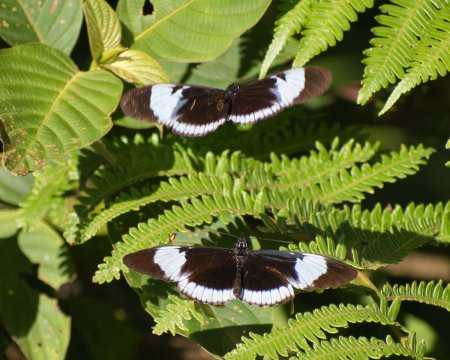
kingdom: Animalia
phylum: Arthropoda
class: Insecta
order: Lepidoptera
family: Nymphalidae
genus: Heliconius
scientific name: Heliconius cydno
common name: Cydno Longwing
